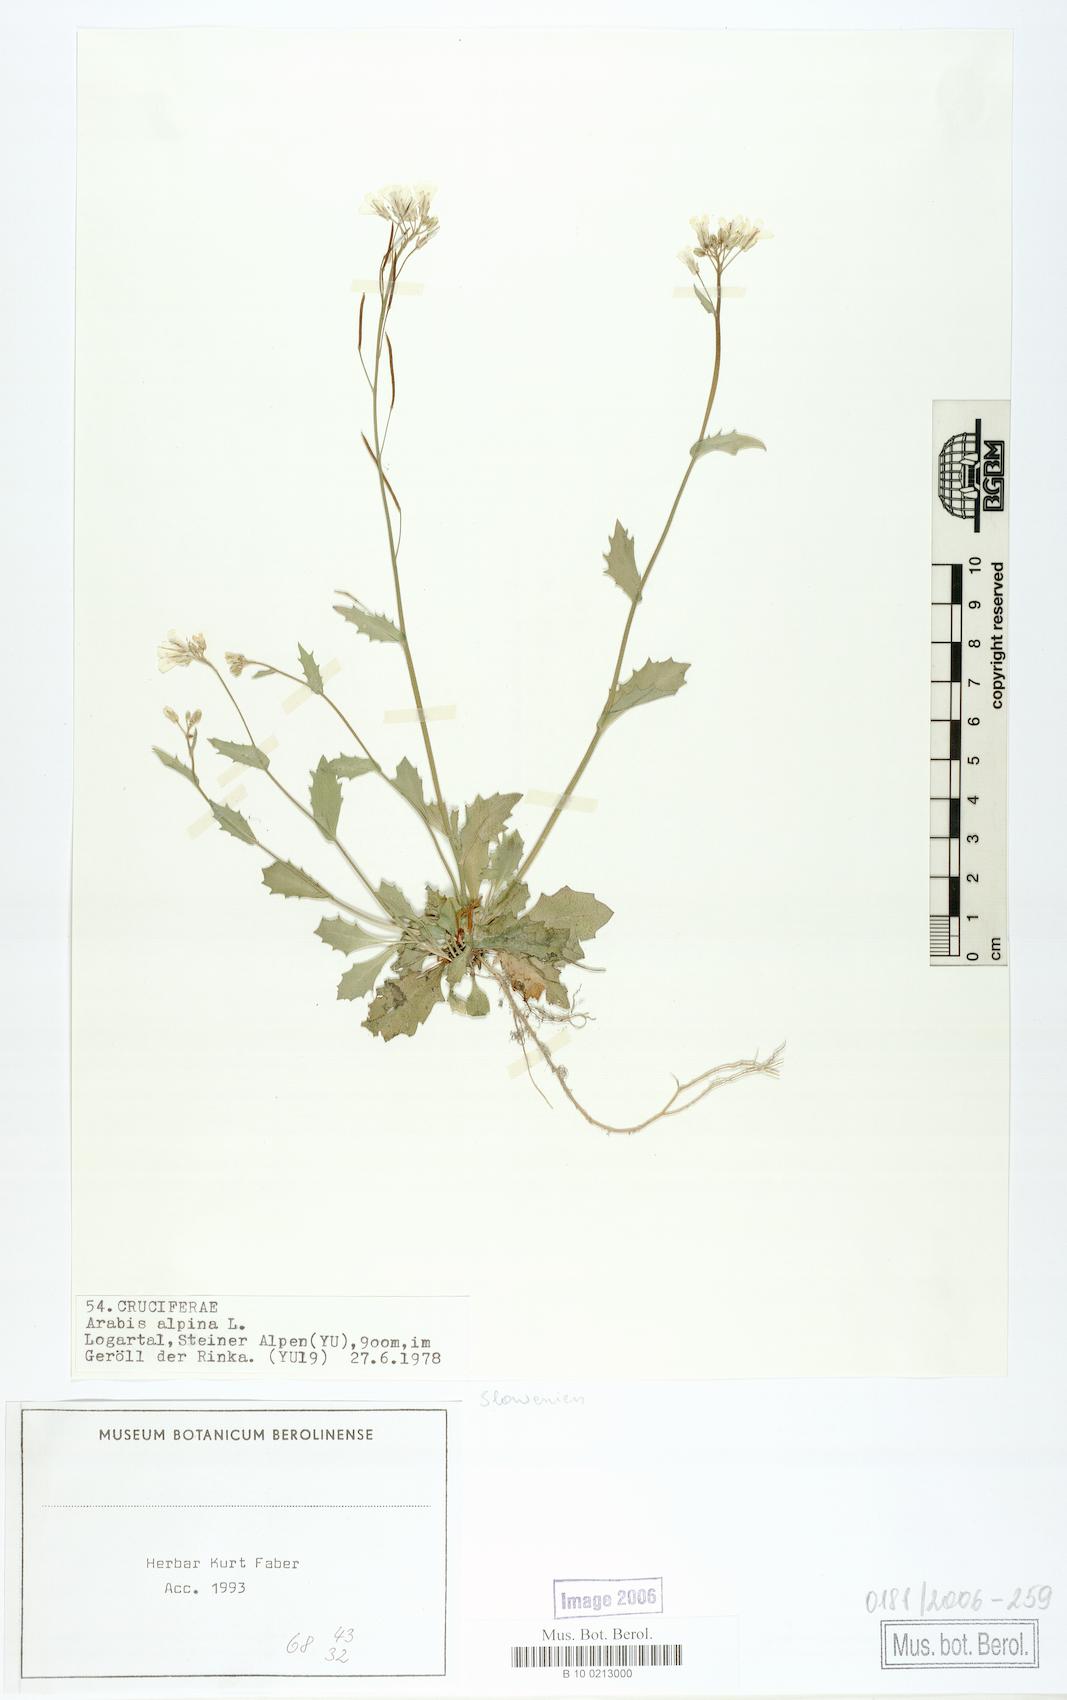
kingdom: Plantae
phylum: Tracheophyta
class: Magnoliopsida
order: Brassicales
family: Brassicaceae
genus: Arabis
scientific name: Arabis alpina
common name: Alpine rock-cress
